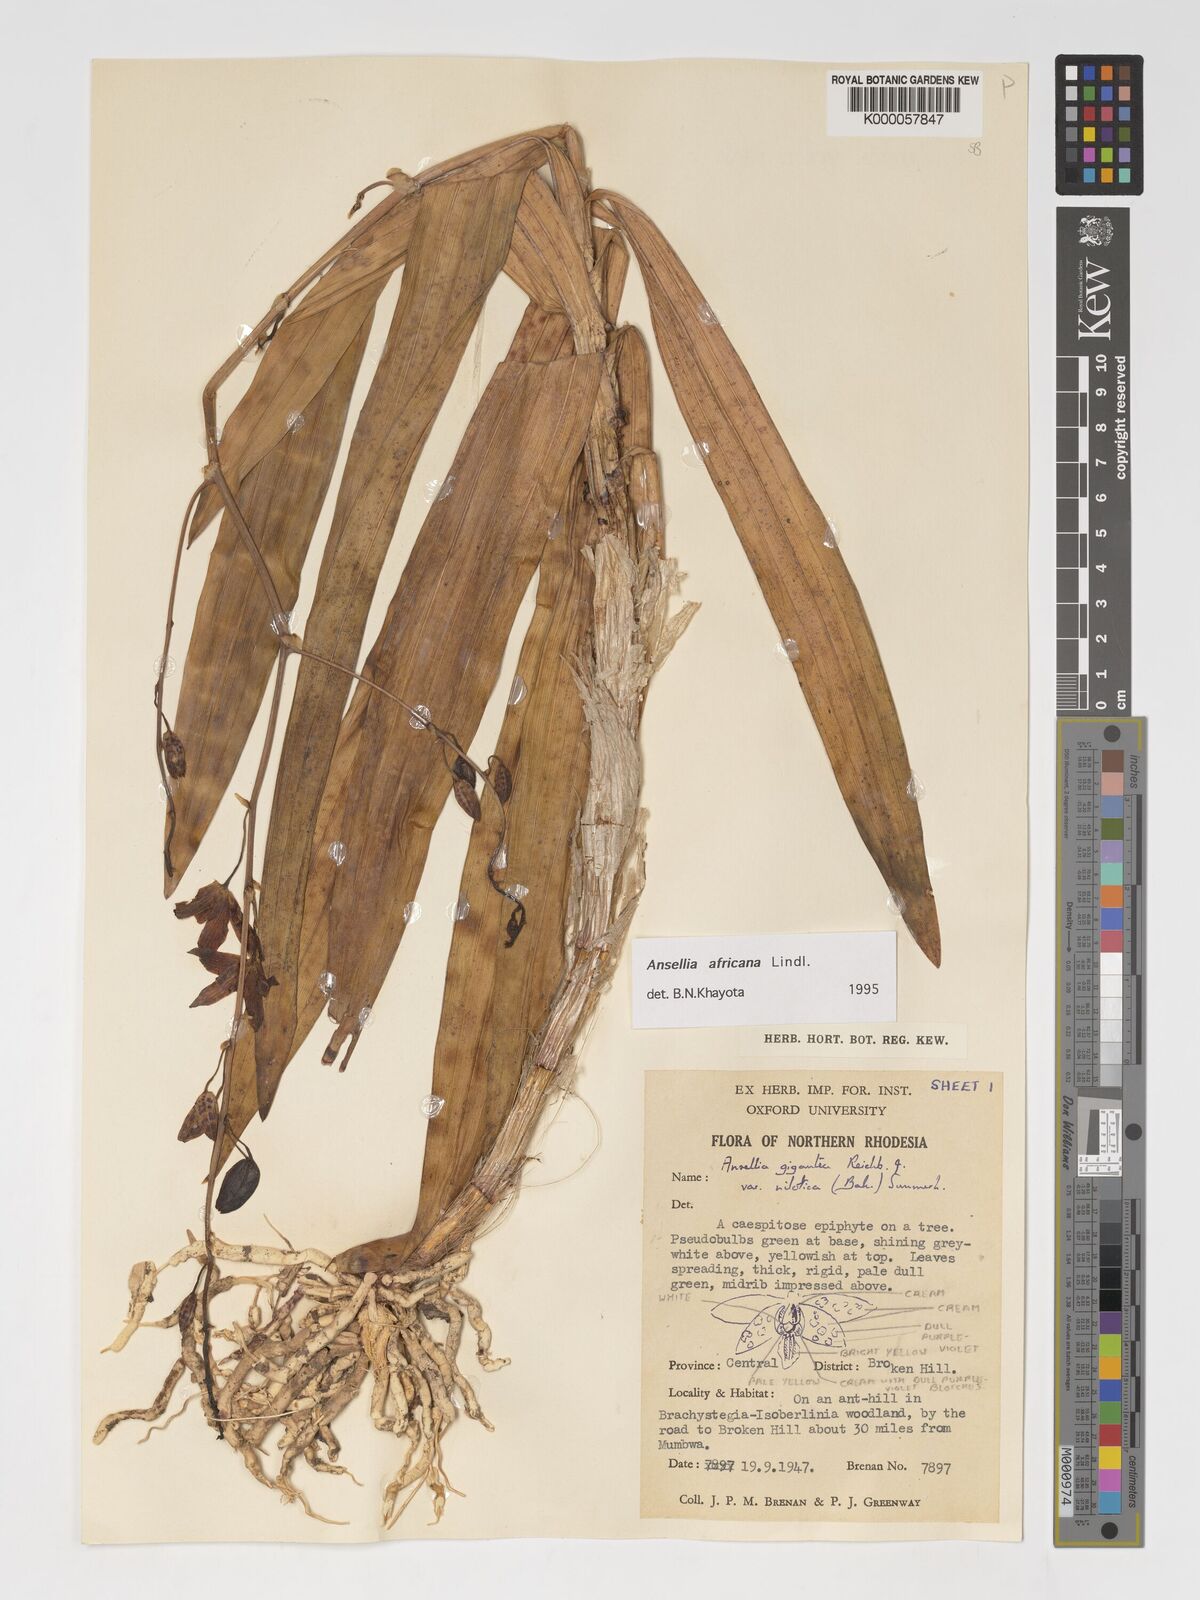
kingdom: Plantae
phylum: Tracheophyta
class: Liliopsida
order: Asparagales
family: Orchidaceae
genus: Ansellia
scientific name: Ansellia africana
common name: African ansellia
